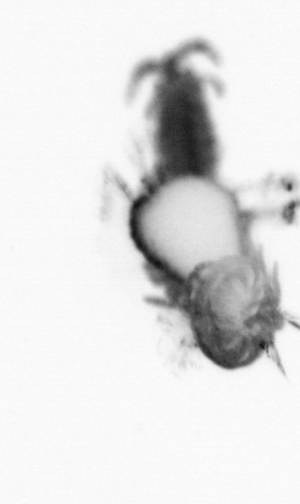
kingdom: Animalia
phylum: Annelida
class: Polychaeta
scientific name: Polychaeta
